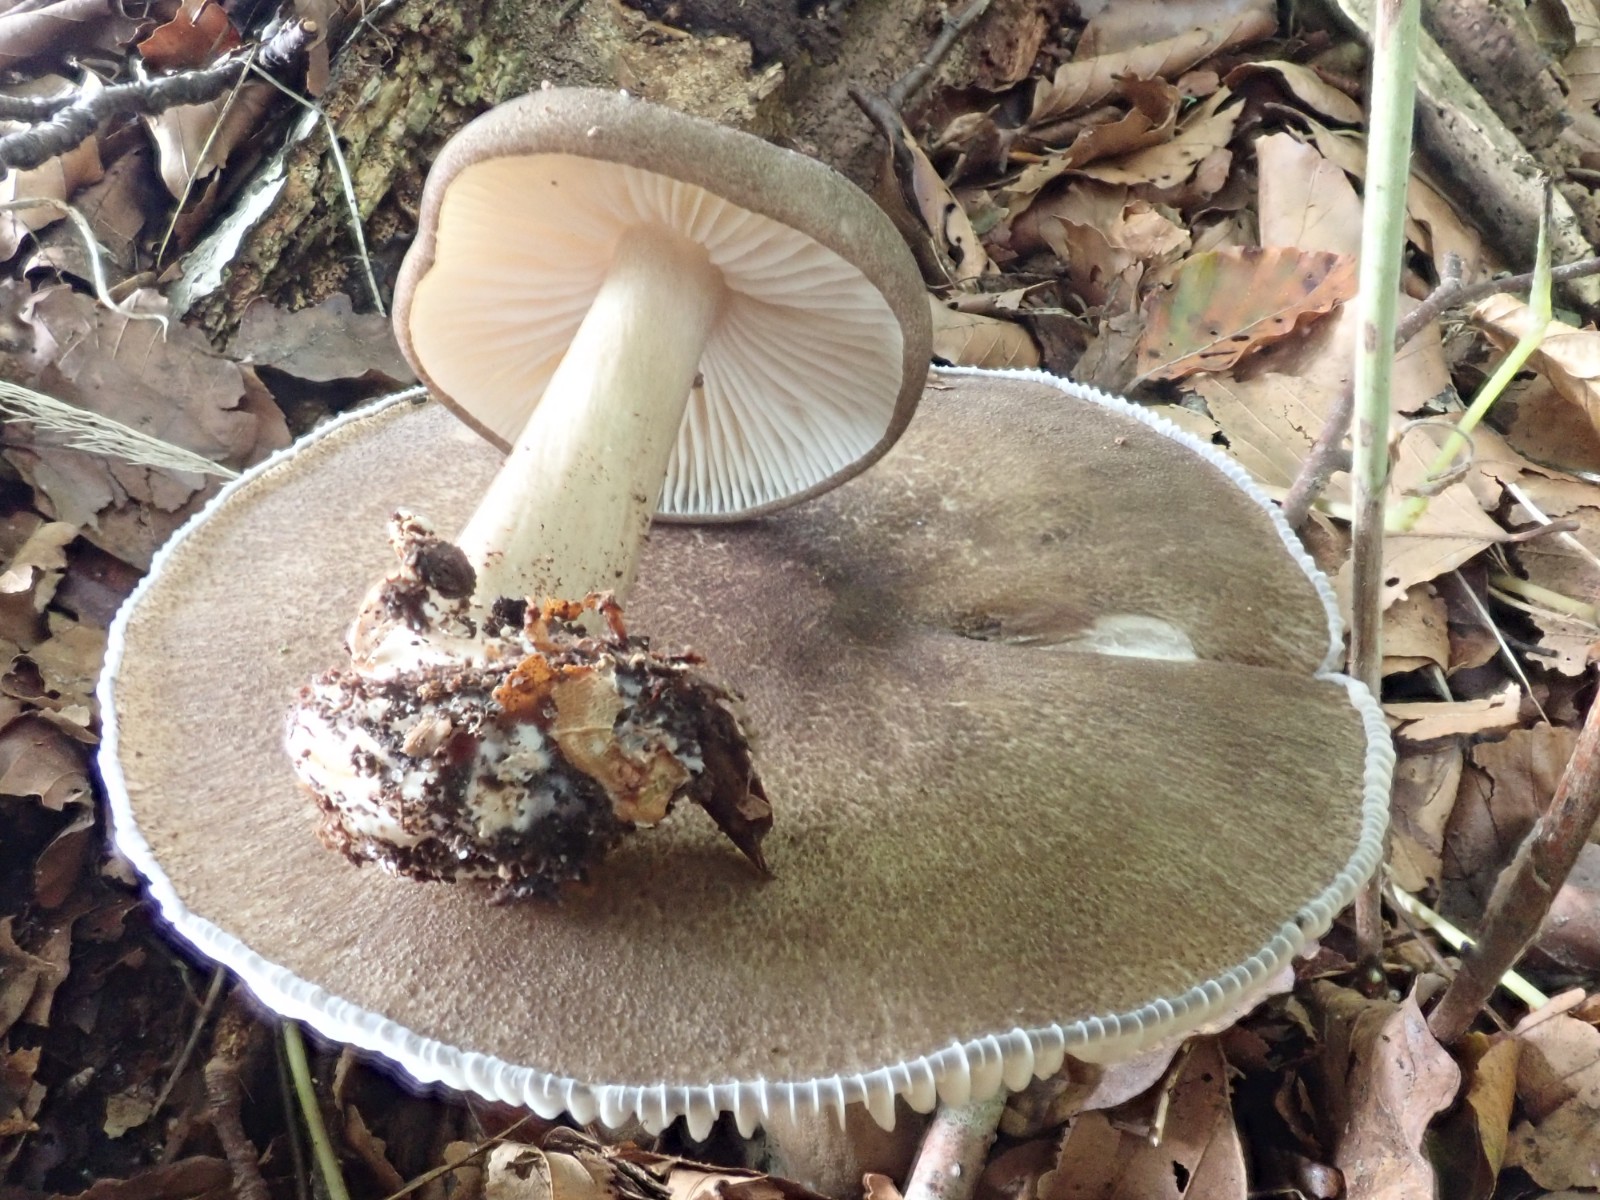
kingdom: Fungi
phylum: Basidiomycota
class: Agaricomycetes
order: Agaricales
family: Tricholomataceae
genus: Megacollybia
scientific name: Megacollybia platyphylla
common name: bredbladet væbnerhat
